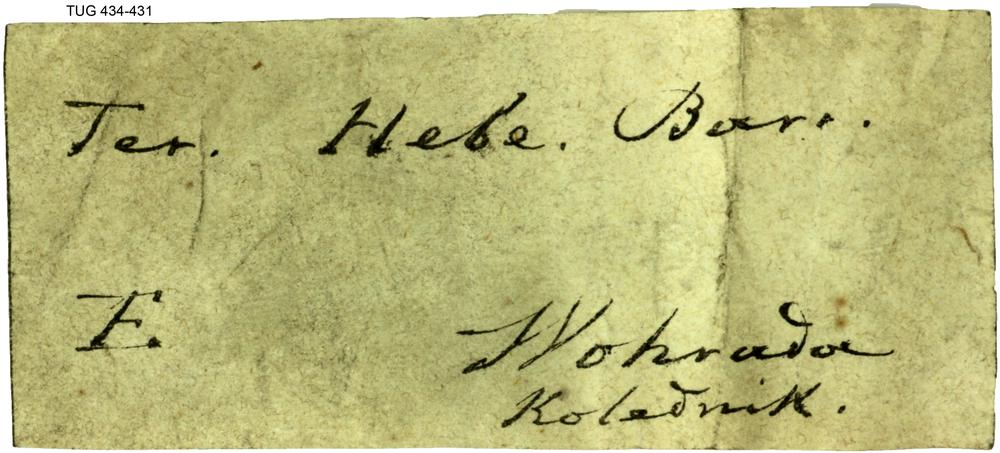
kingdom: Animalia
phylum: Brachiopoda
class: Rhynchonellata
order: Rhynchonellida
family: Hebetoechiidae
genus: Hebetoechia
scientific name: Hebetoechia
